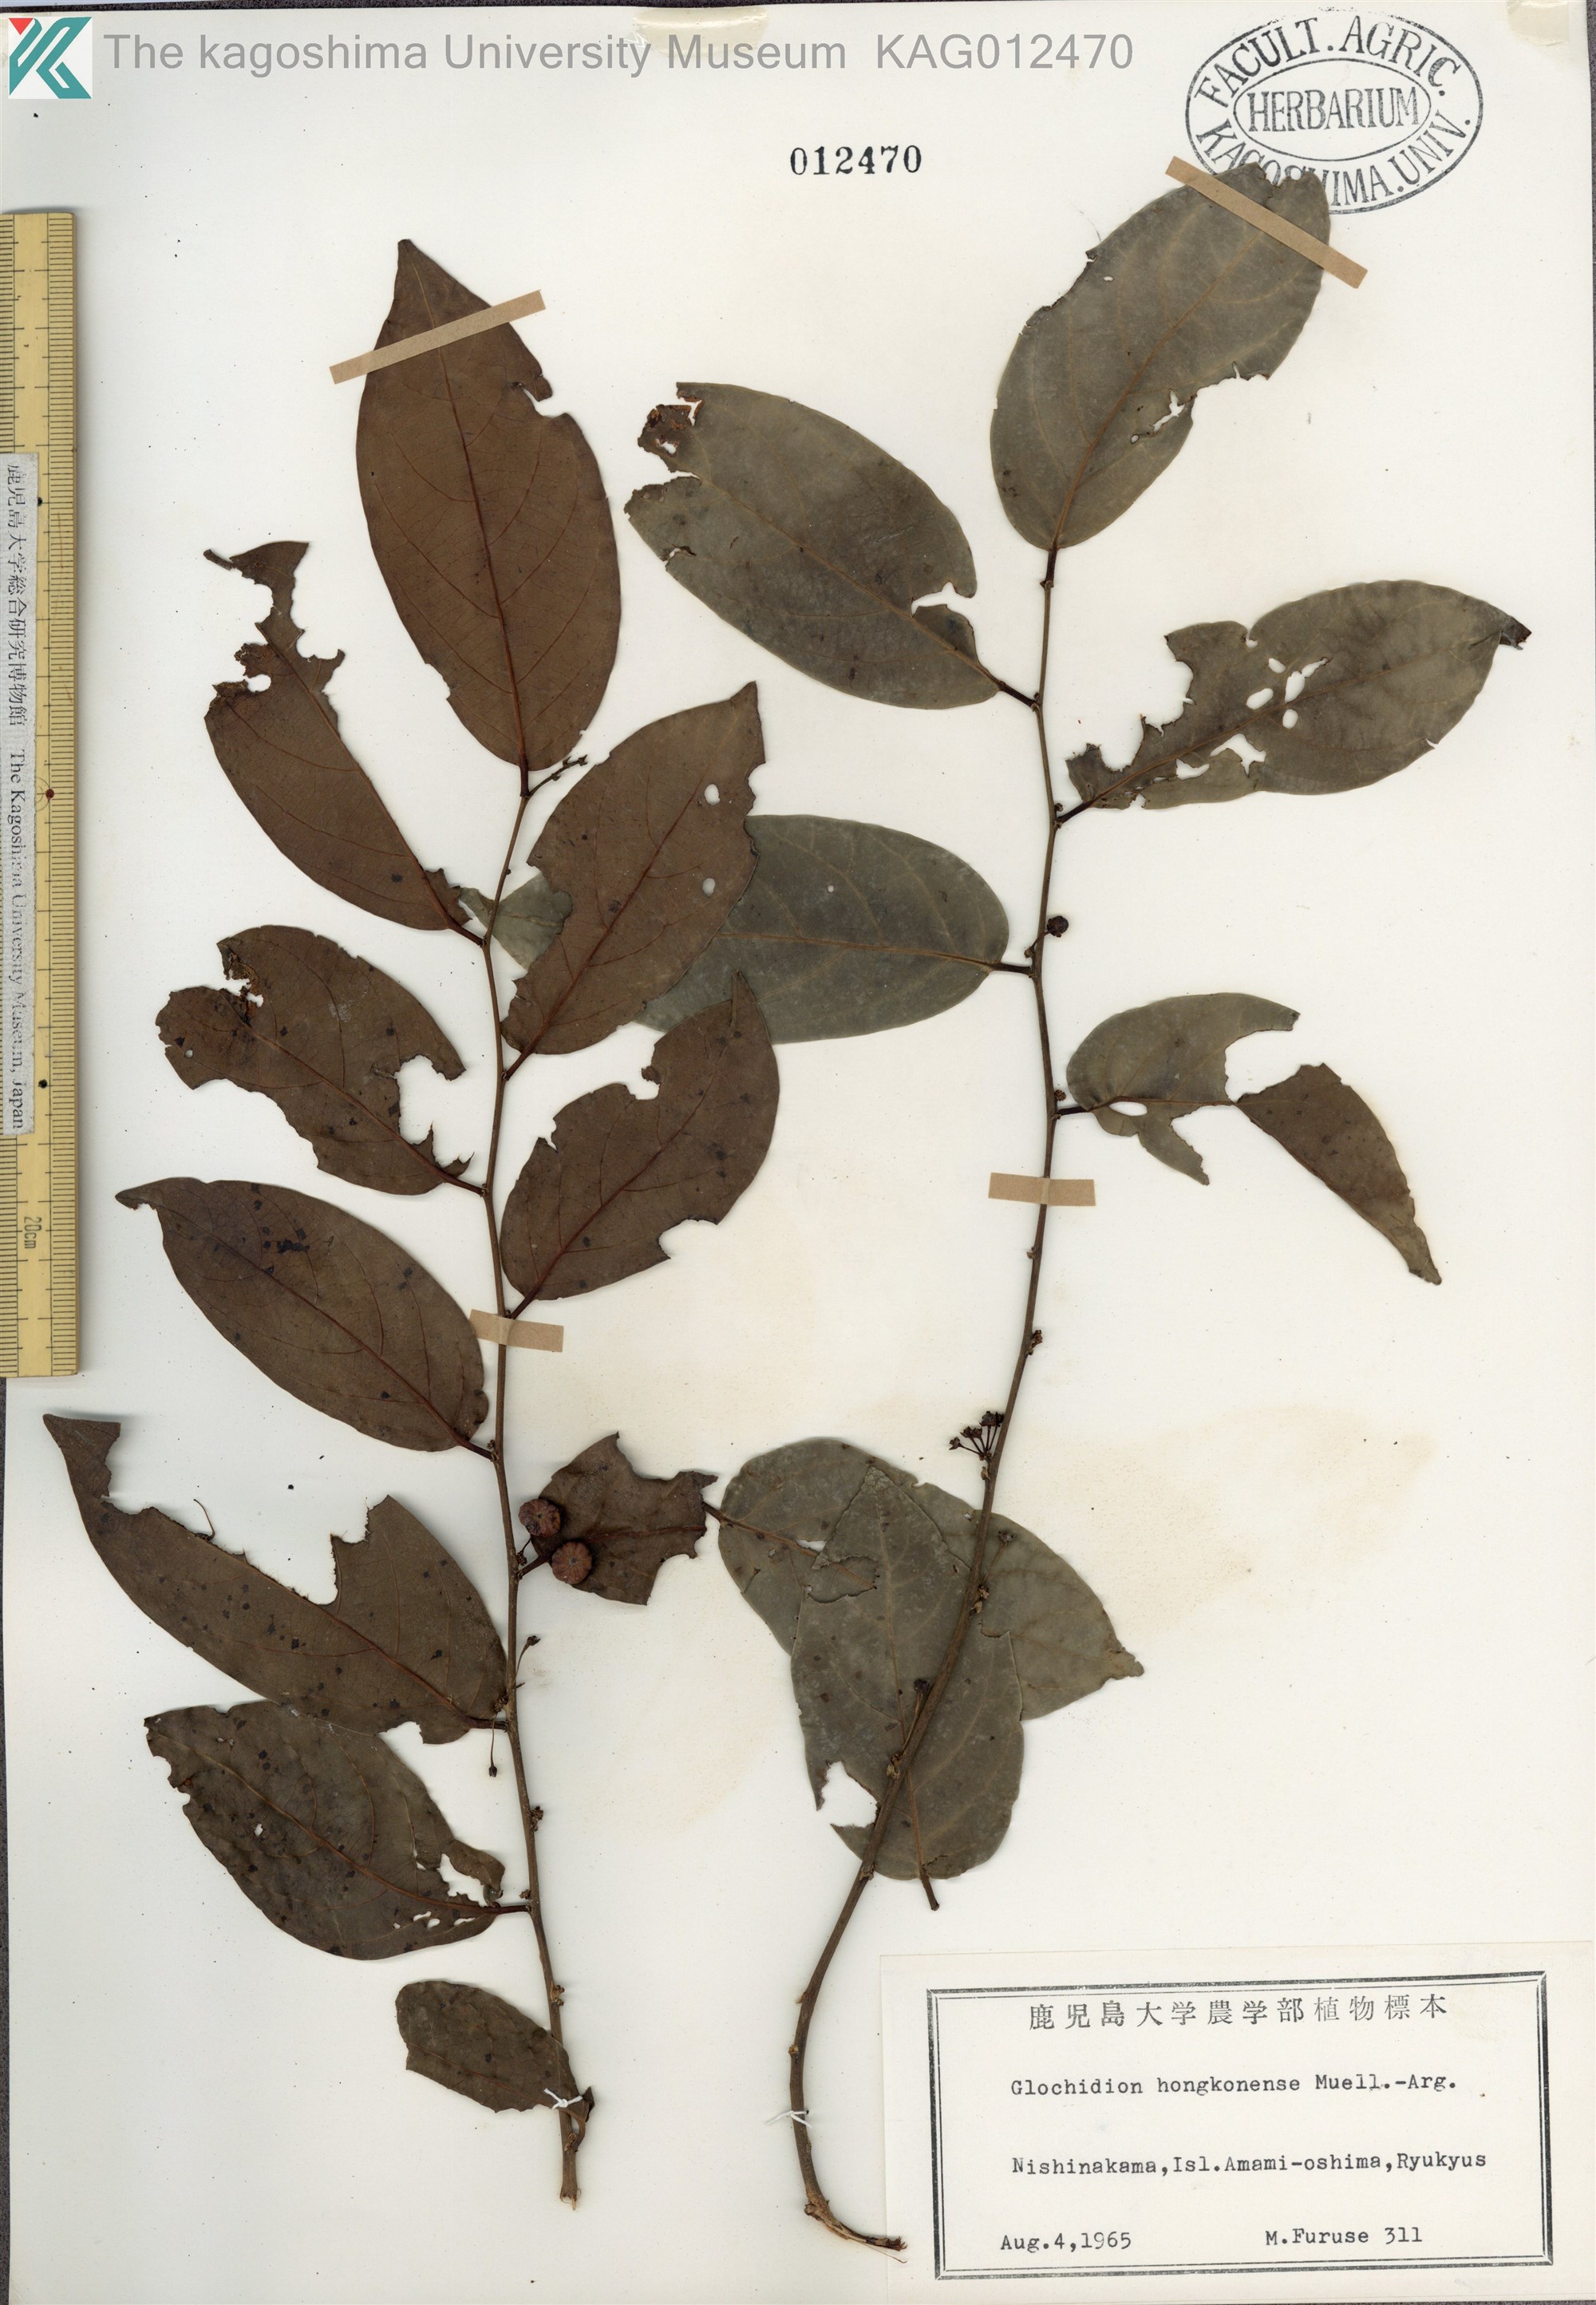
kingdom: Plantae
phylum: Tracheophyta
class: Magnoliopsida
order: Malpighiales
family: Phyllanthaceae
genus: Glochidion
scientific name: Glochidion zeylanicum
